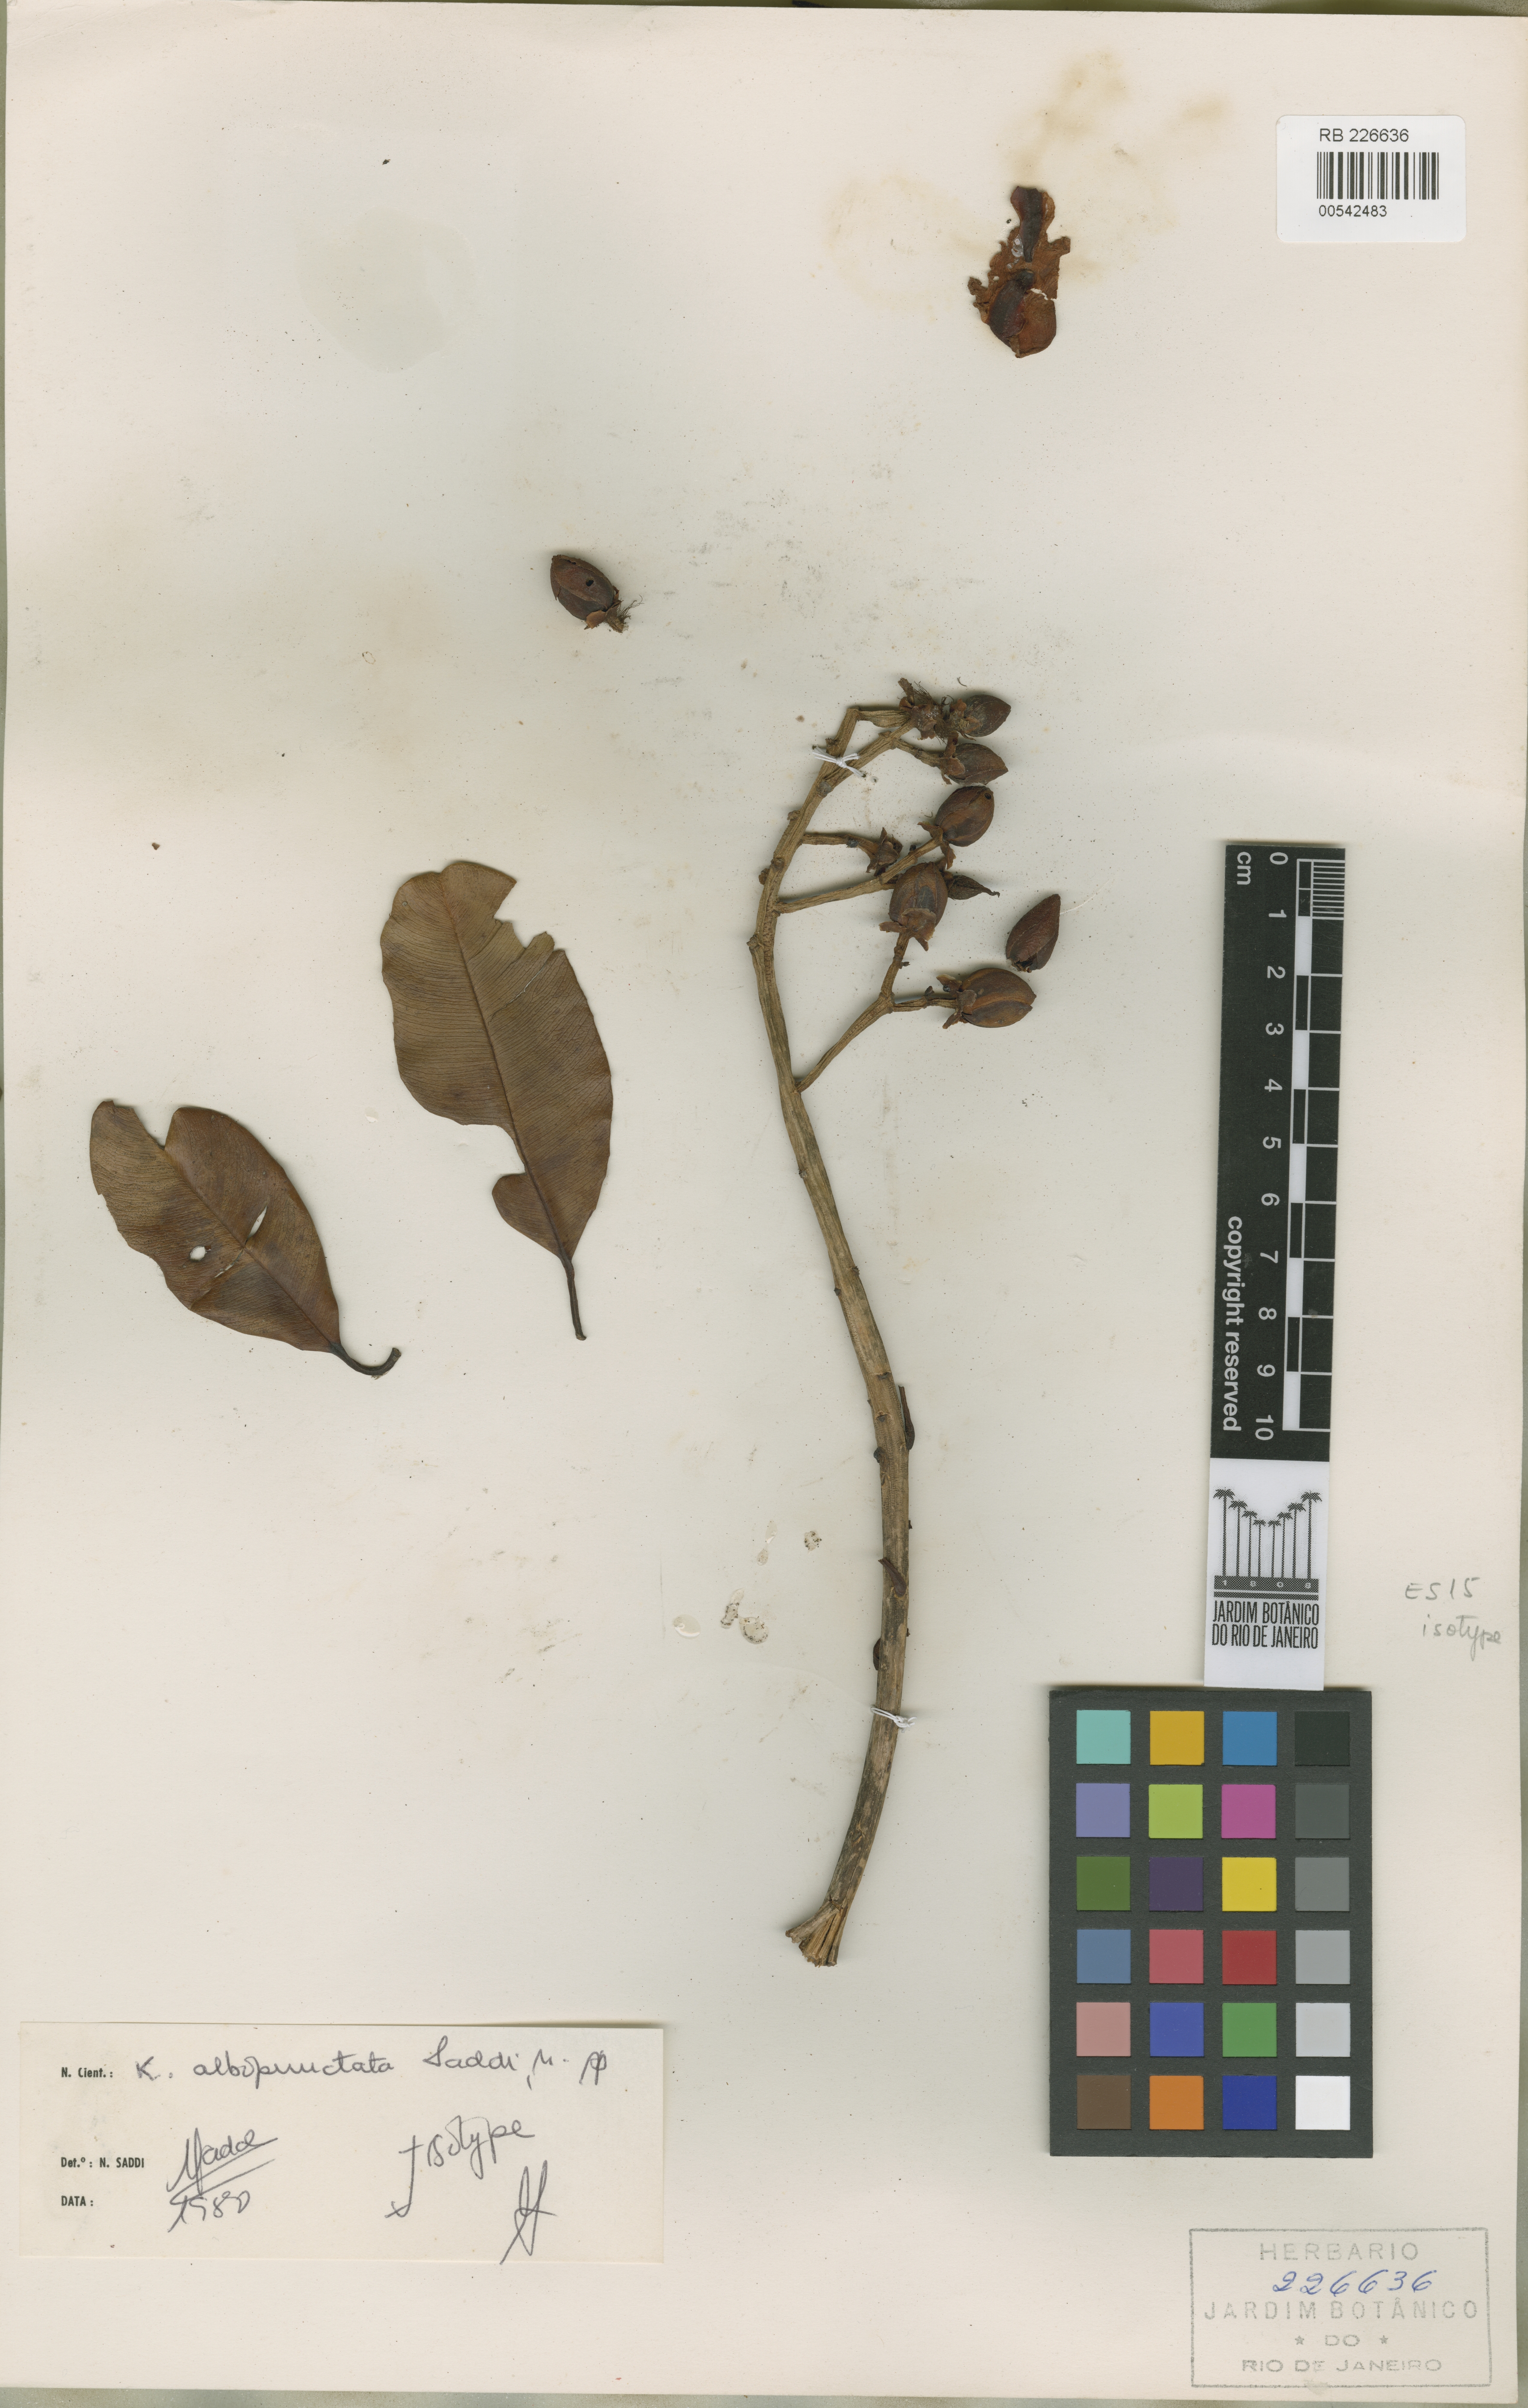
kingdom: Plantae
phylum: Tracheophyta
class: Magnoliopsida
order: Malpighiales
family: Calophyllaceae
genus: Kielmeyera
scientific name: Kielmeyera albopunctata
